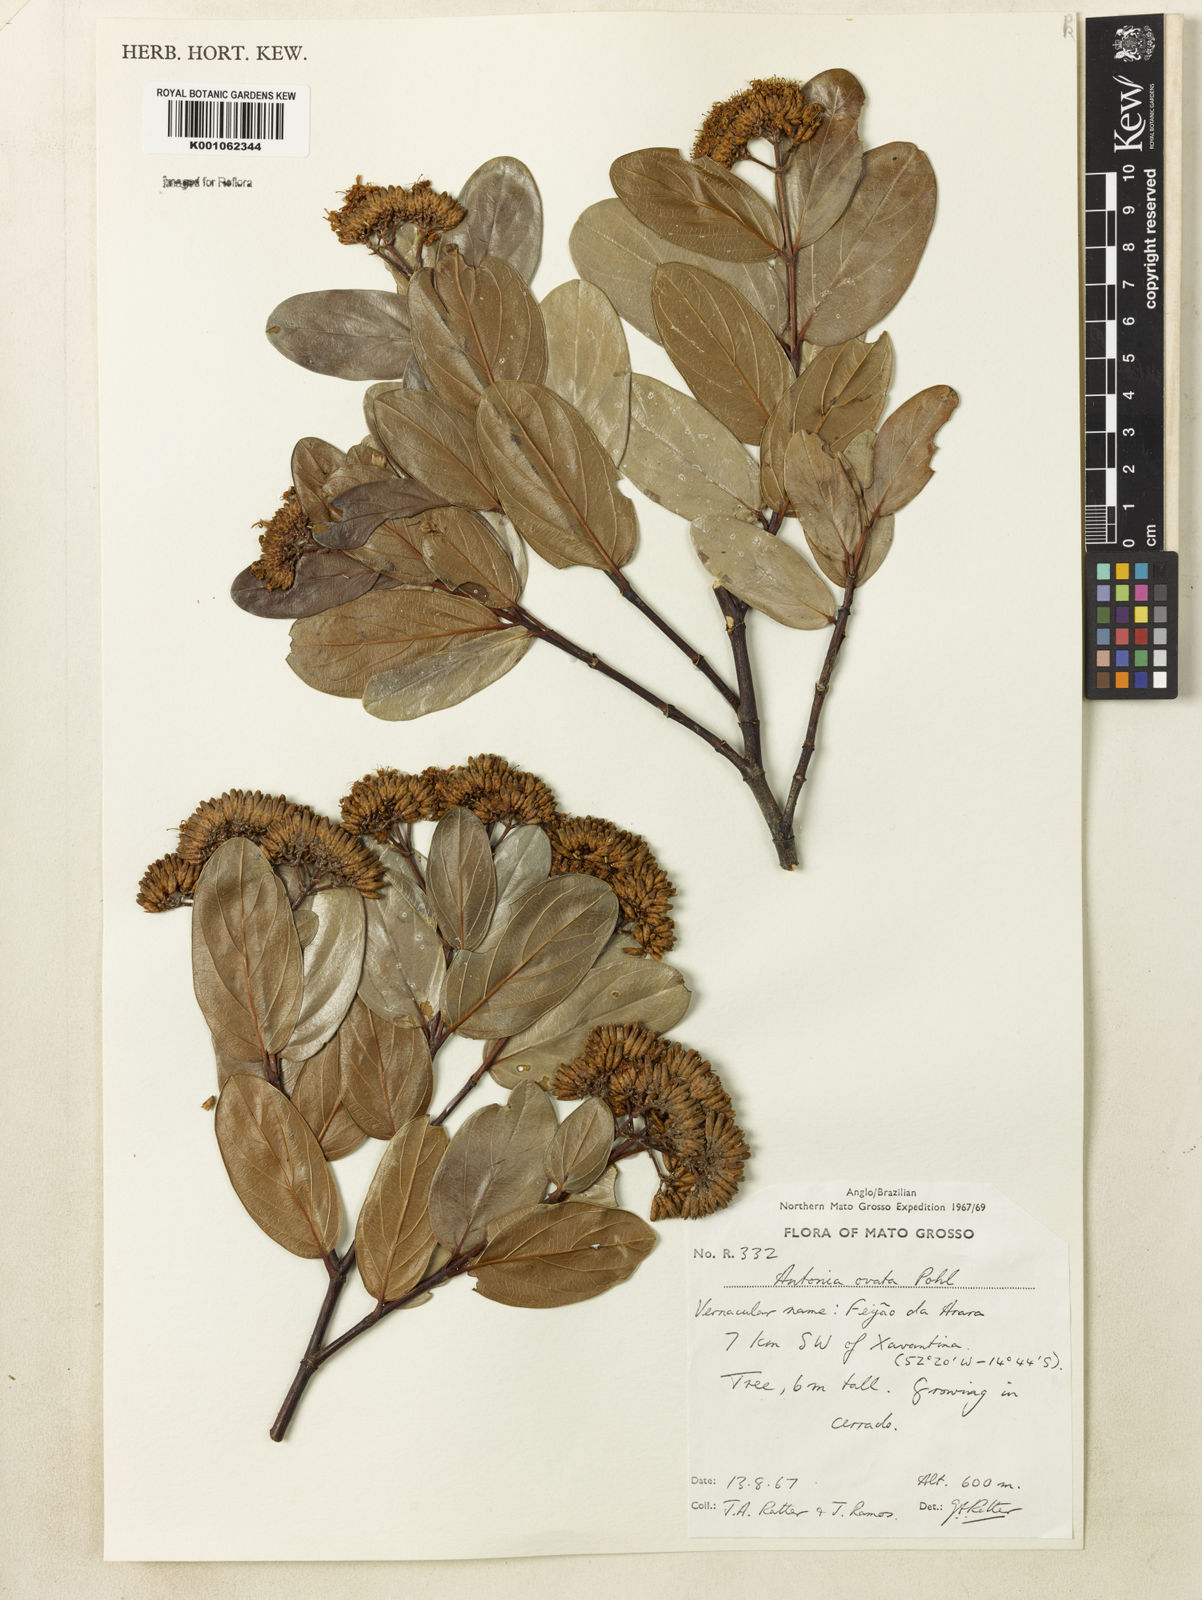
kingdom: Plantae
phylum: Tracheophyta
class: Magnoliopsida
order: Gentianales
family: Loganiaceae
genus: Antonia
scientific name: Antonia ovata
